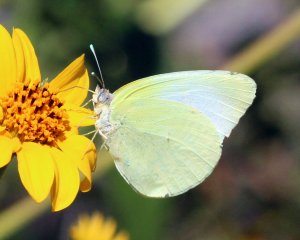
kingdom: Animalia
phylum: Arthropoda
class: Insecta
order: Lepidoptera
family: Pieridae
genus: Kricogonia
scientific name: Kricogonia lyside
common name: Lyside Sulphur
